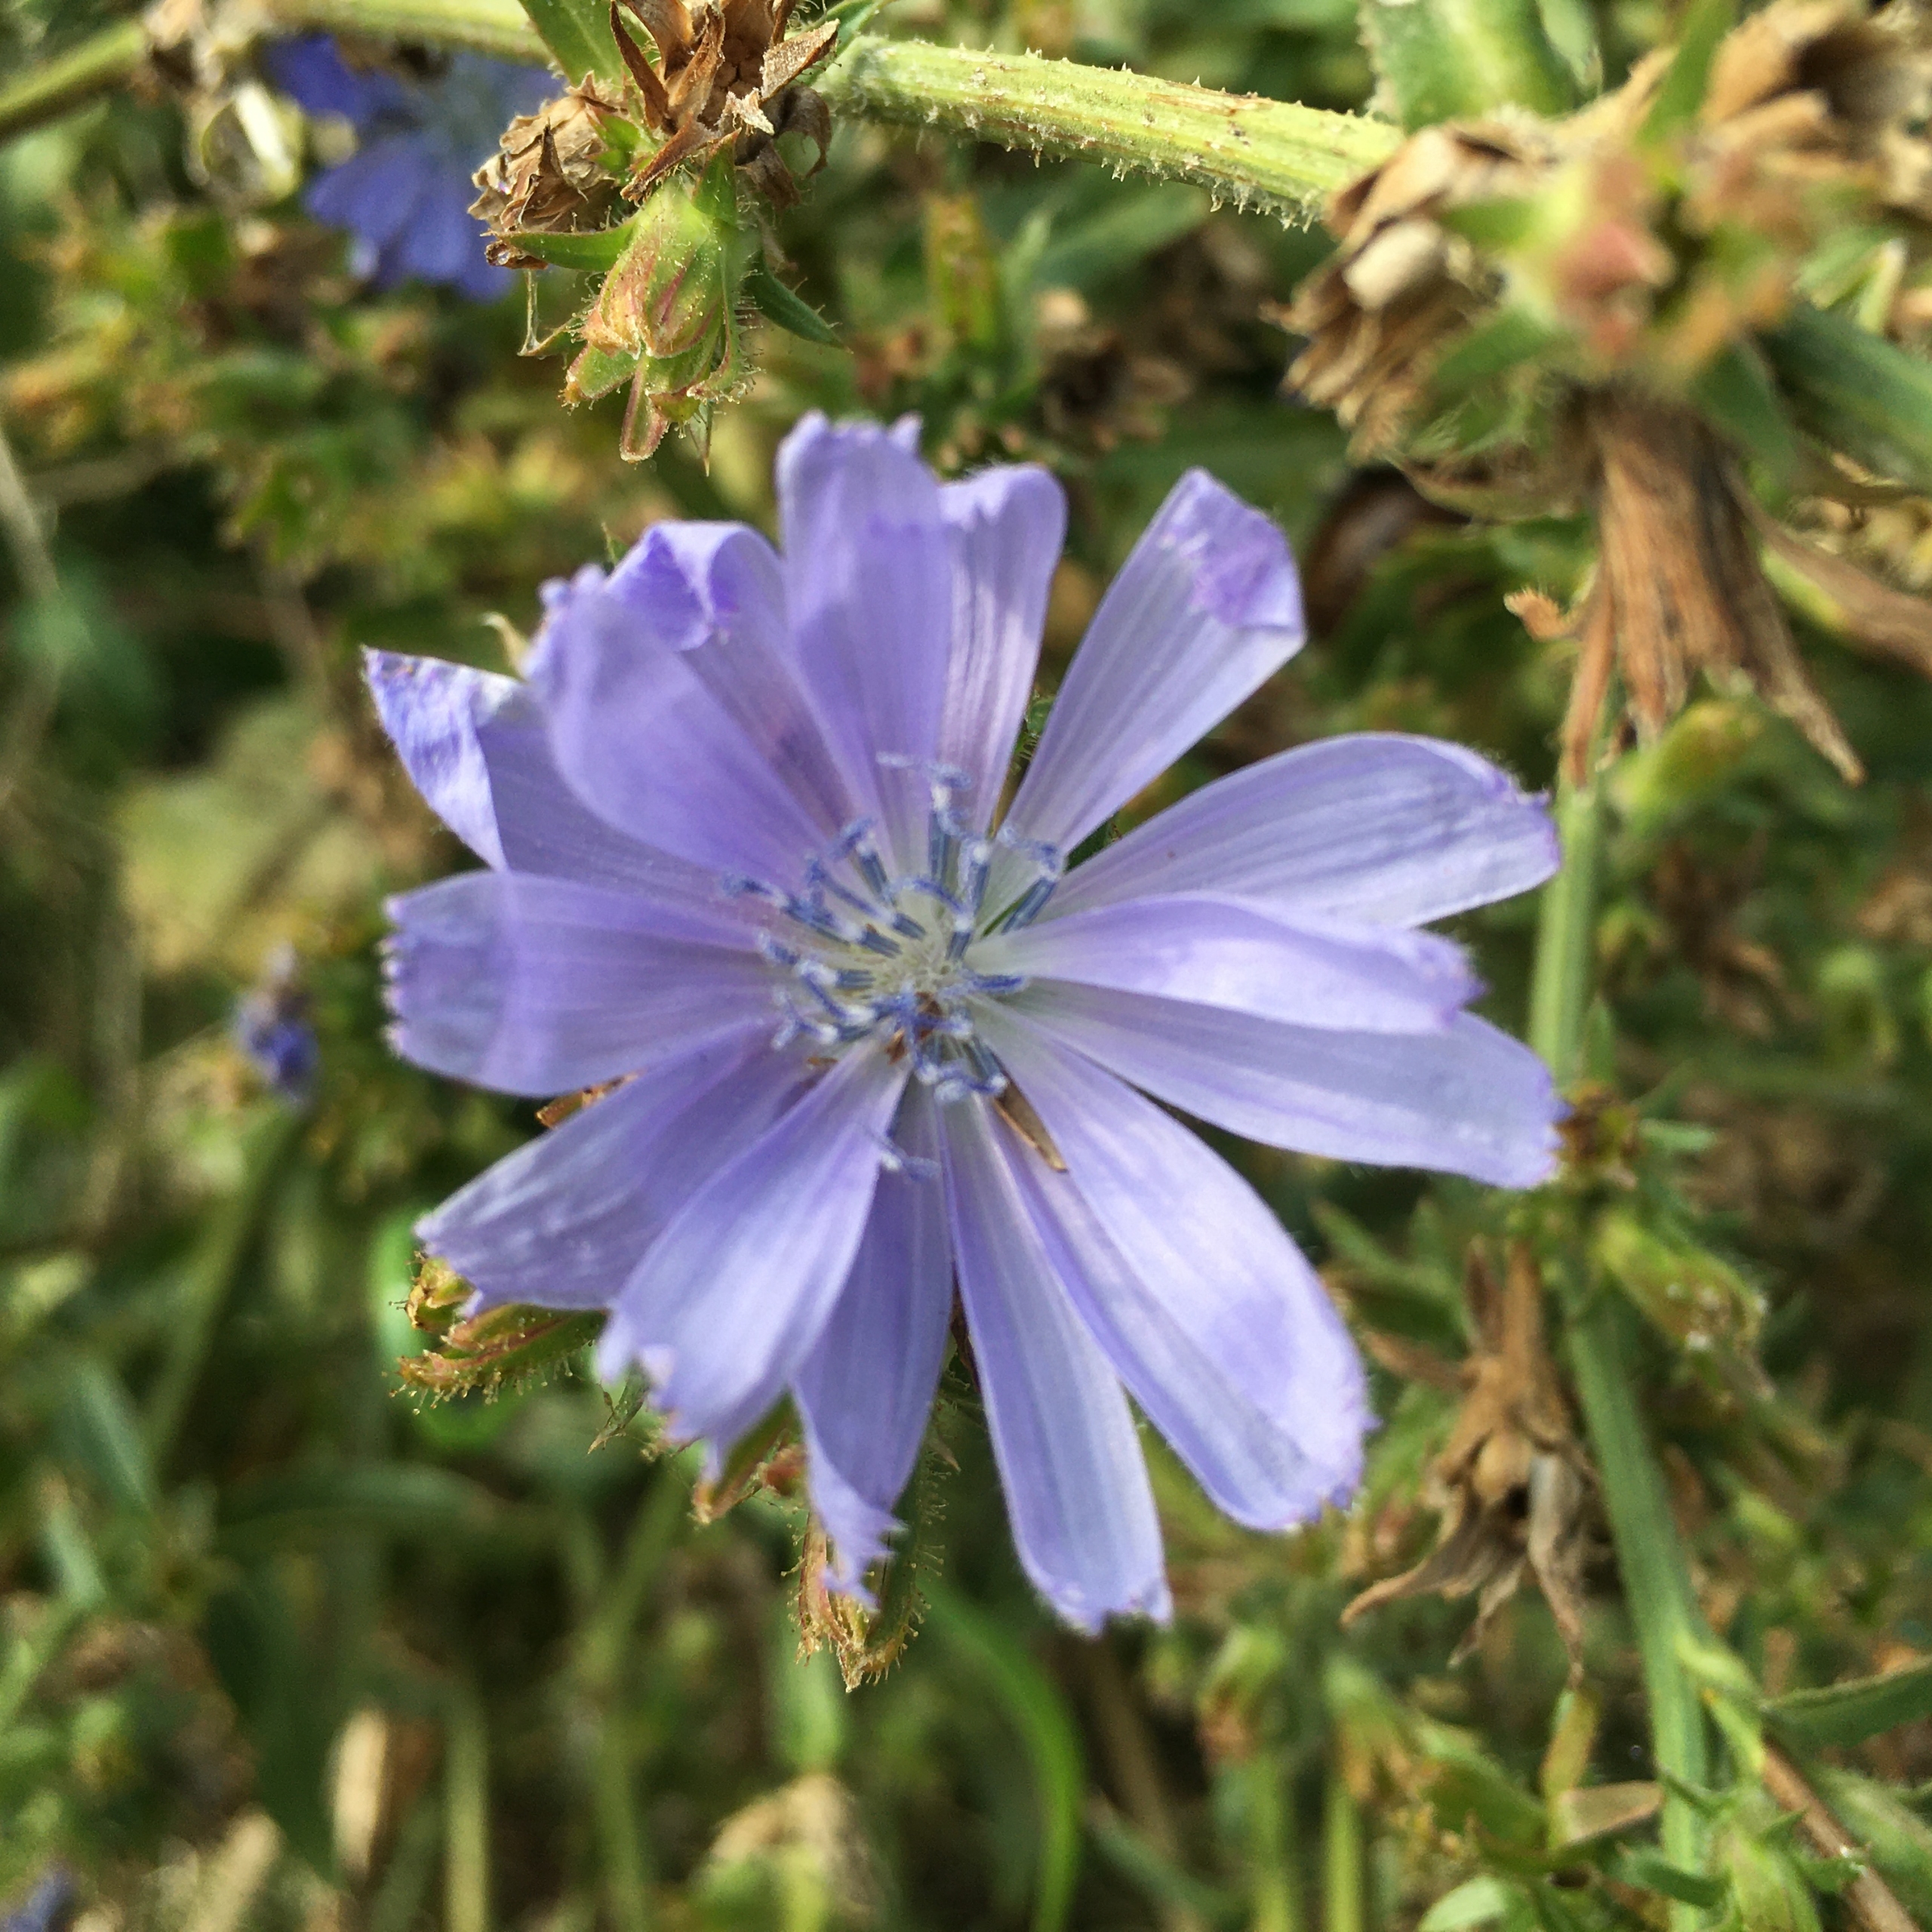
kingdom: Plantae
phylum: Tracheophyta
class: Magnoliopsida
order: Asterales
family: Asteraceae
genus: Cichorium
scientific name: Cichorium intybus
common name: Cikorie
